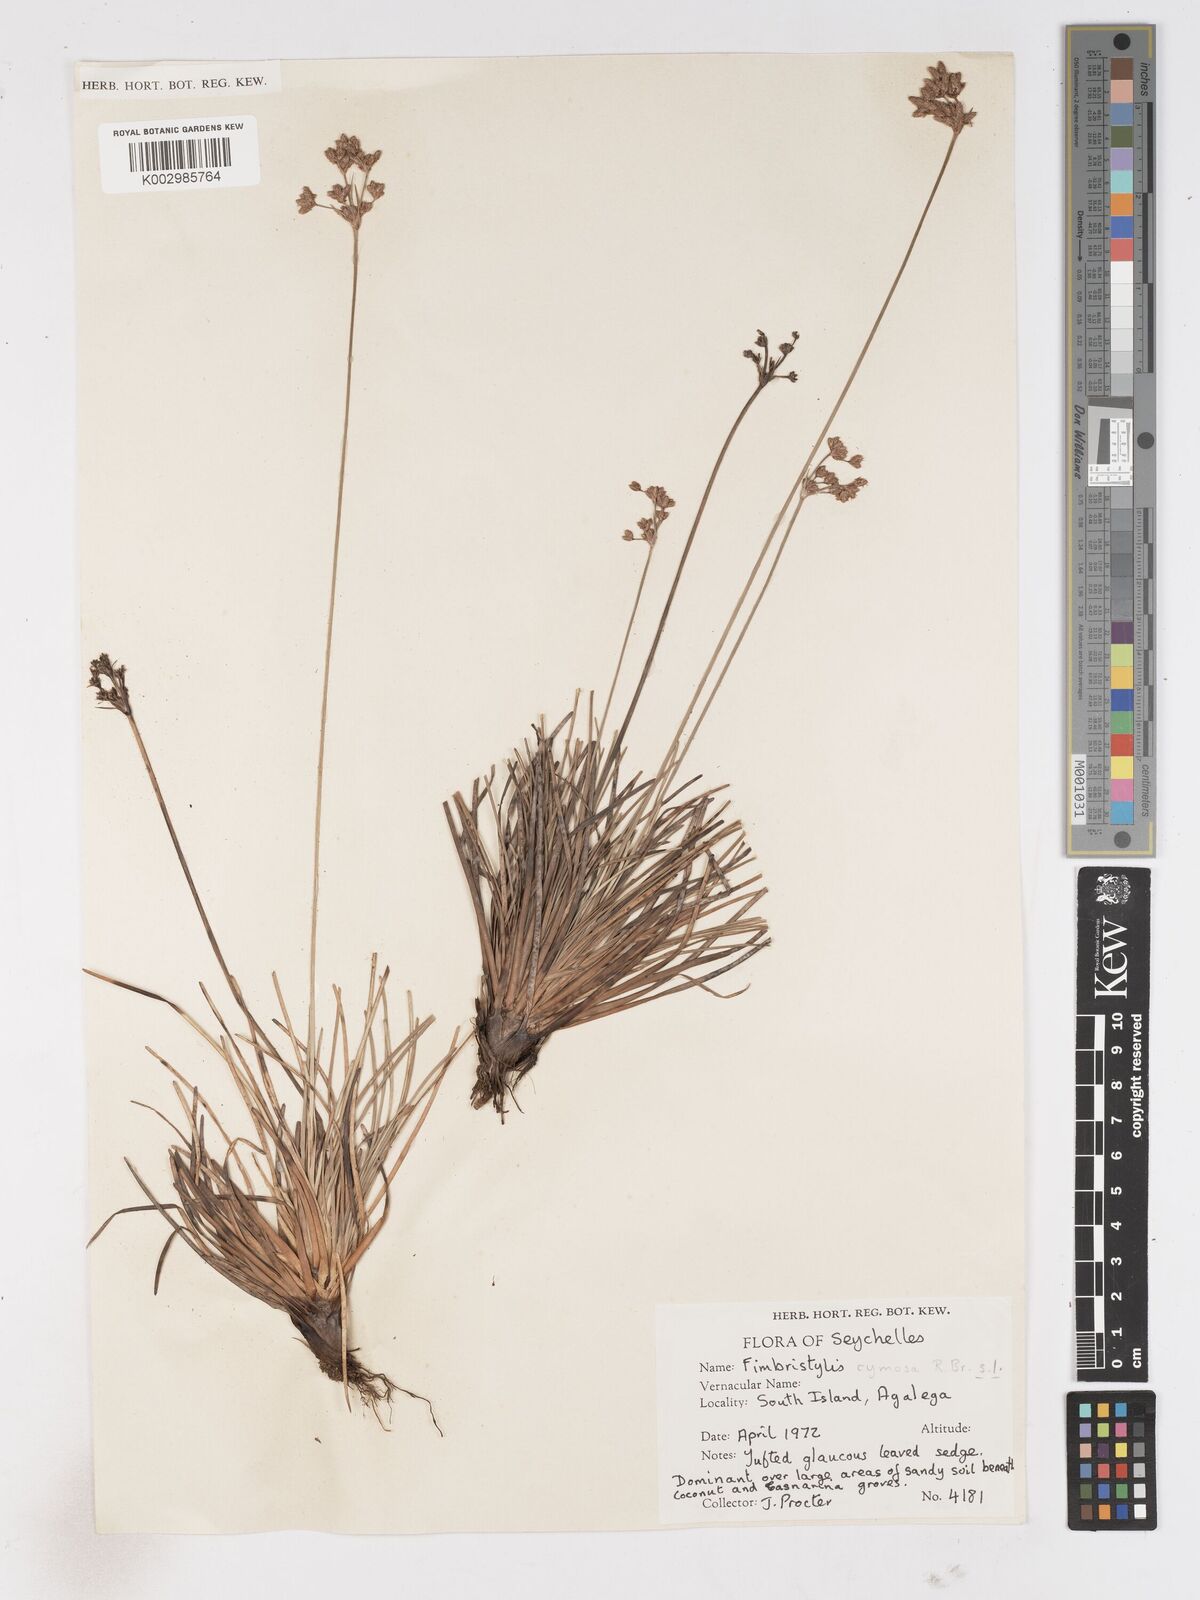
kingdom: Plantae
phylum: Tracheophyta
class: Liliopsida
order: Poales
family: Cyperaceae
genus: Fimbristylis
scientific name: Fimbristylis cymosa
